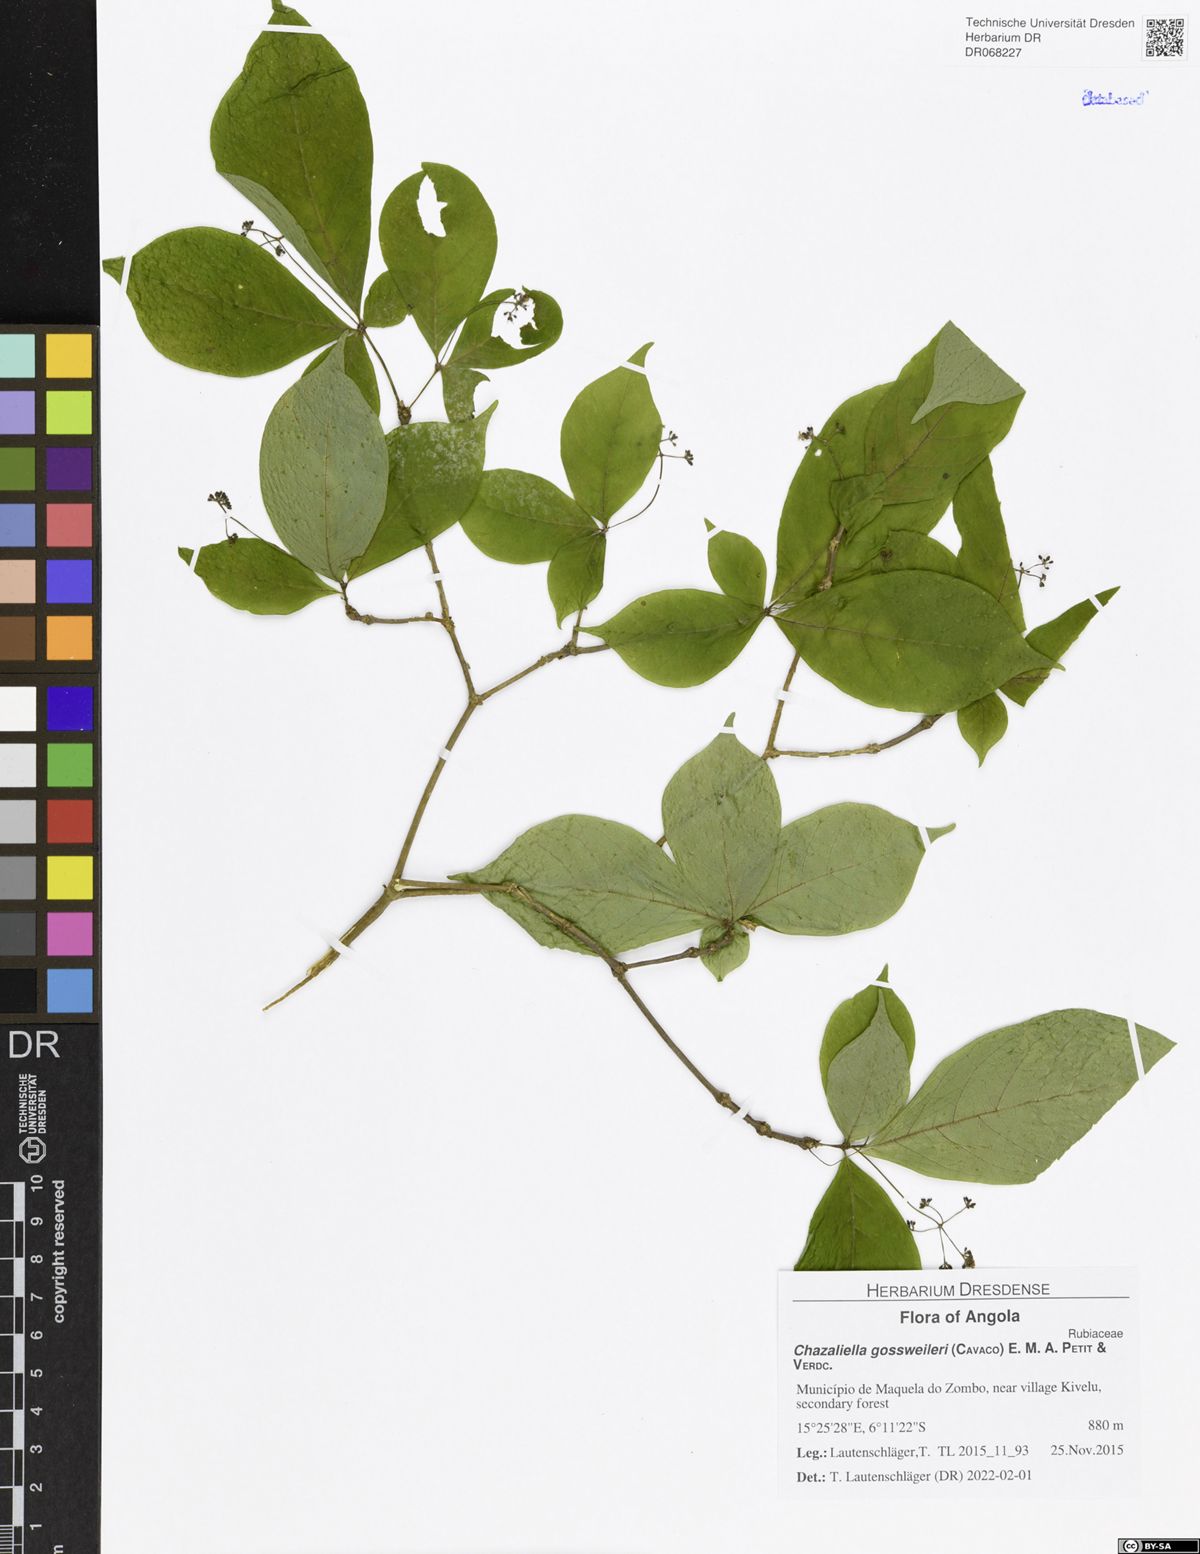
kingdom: Plantae
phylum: Tracheophyta
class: Magnoliopsida
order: Gentianales
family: Rubiaceae
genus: Eumachia
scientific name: Eumachia gossweileri
